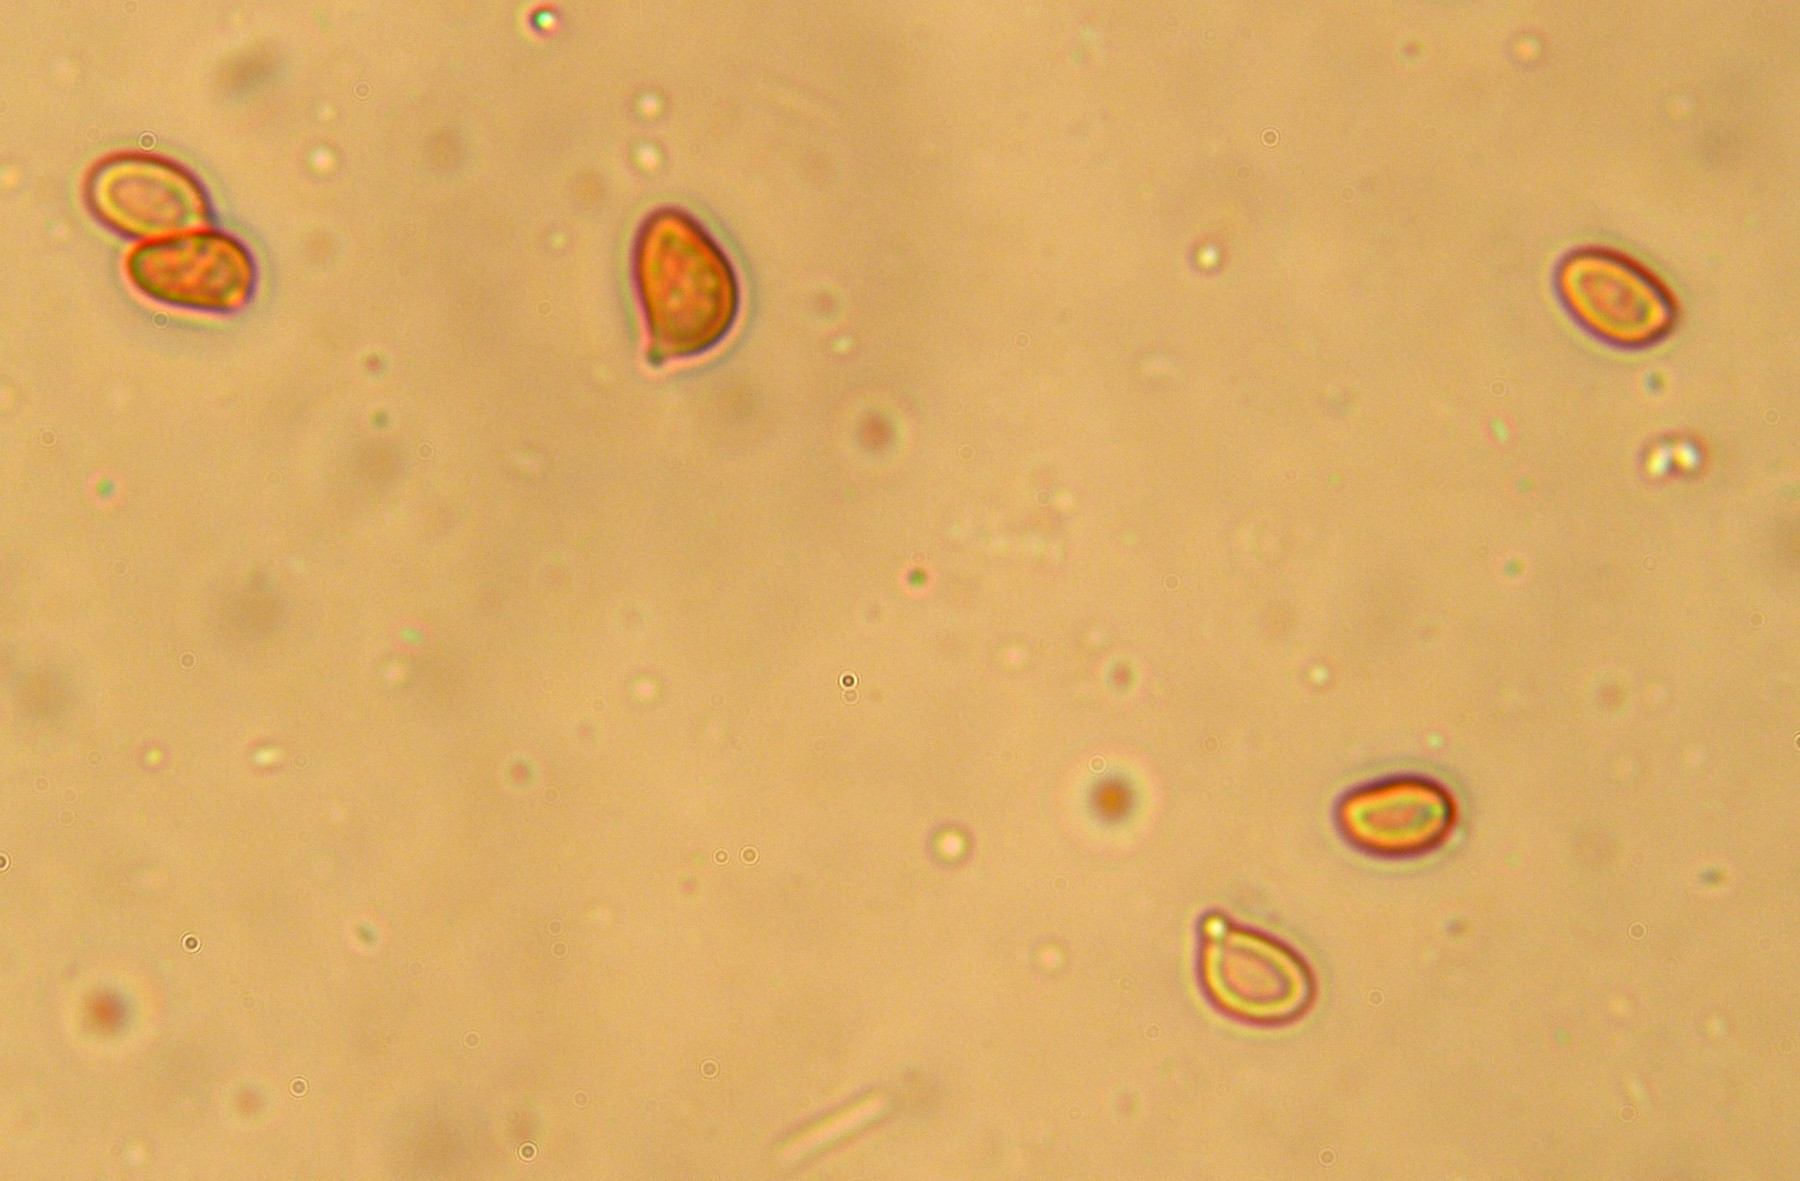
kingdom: Fungi
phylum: Basidiomycota
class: Agaricomycetes
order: Cantharellales
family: Botryobasidiaceae
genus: Botryobasidium
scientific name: Botryobasidium pruinatum
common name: ruhyfet spindhinde
